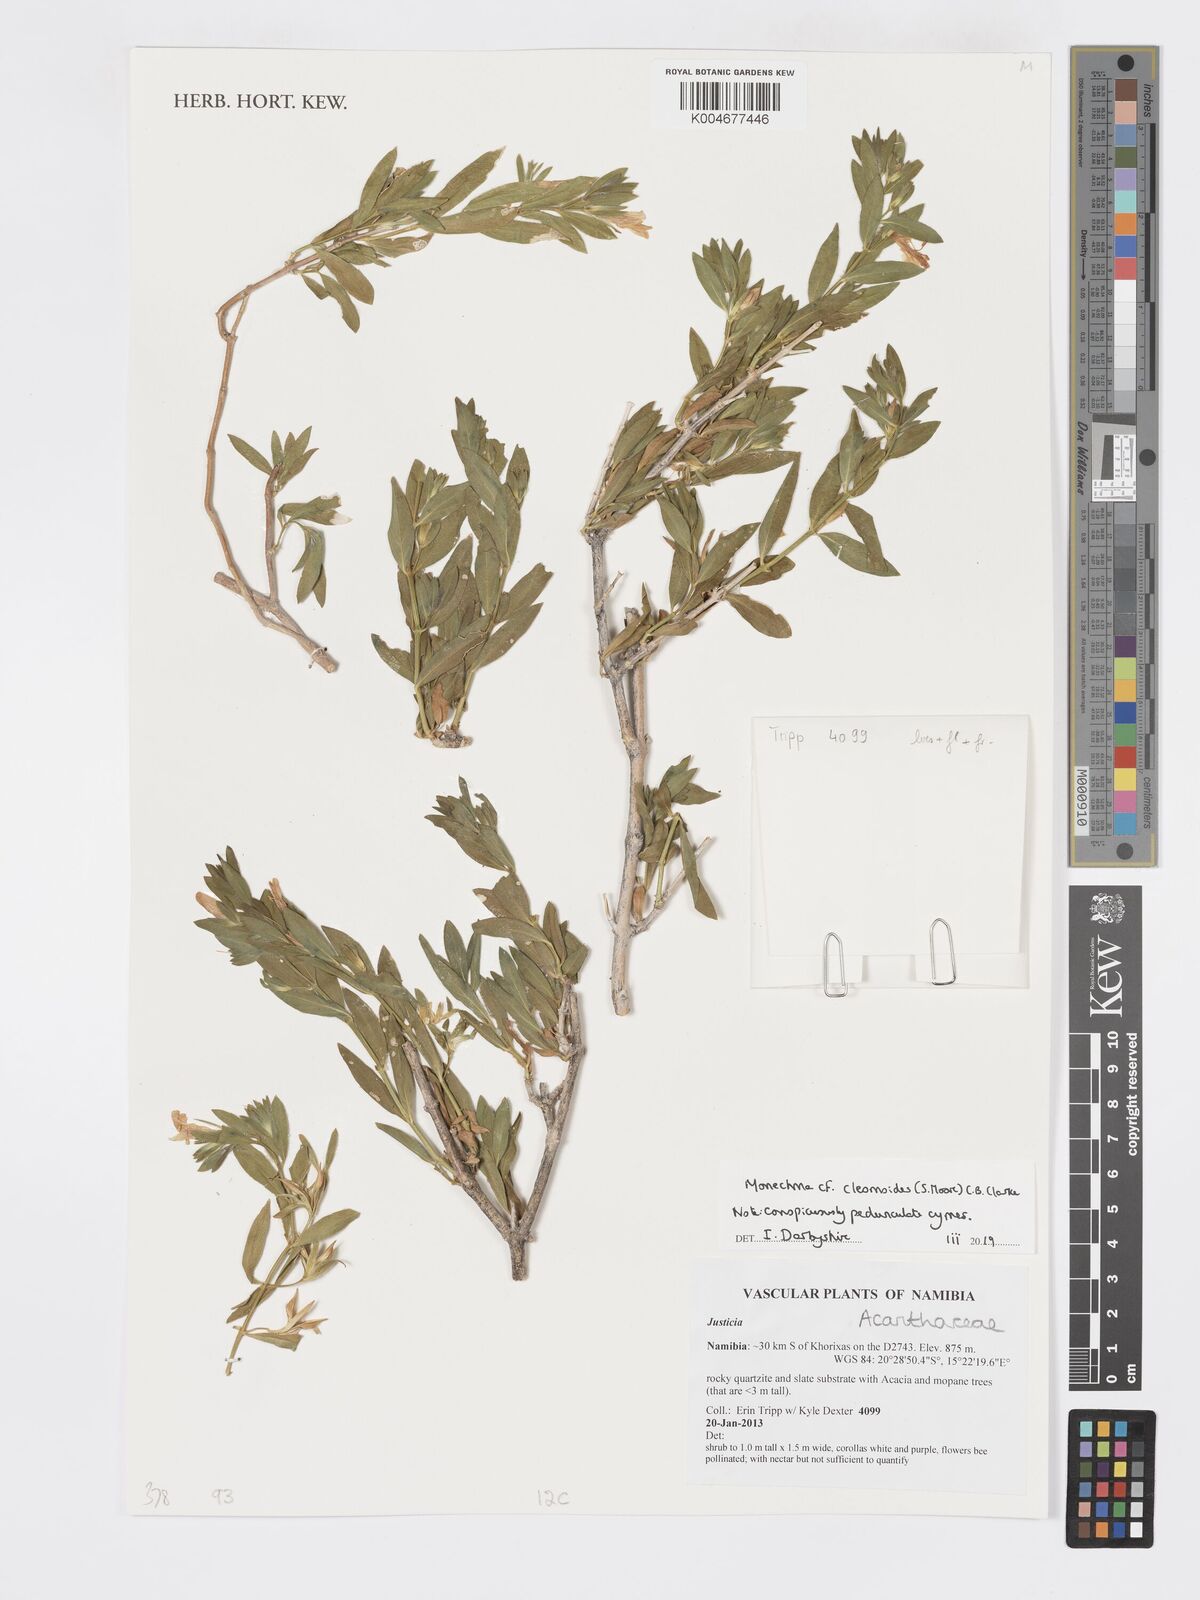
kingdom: Plantae
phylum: Tracheophyta
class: Magnoliopsida
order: Lamiales
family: Acanthaceae
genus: Pogonospermum
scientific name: Pogonospermum
